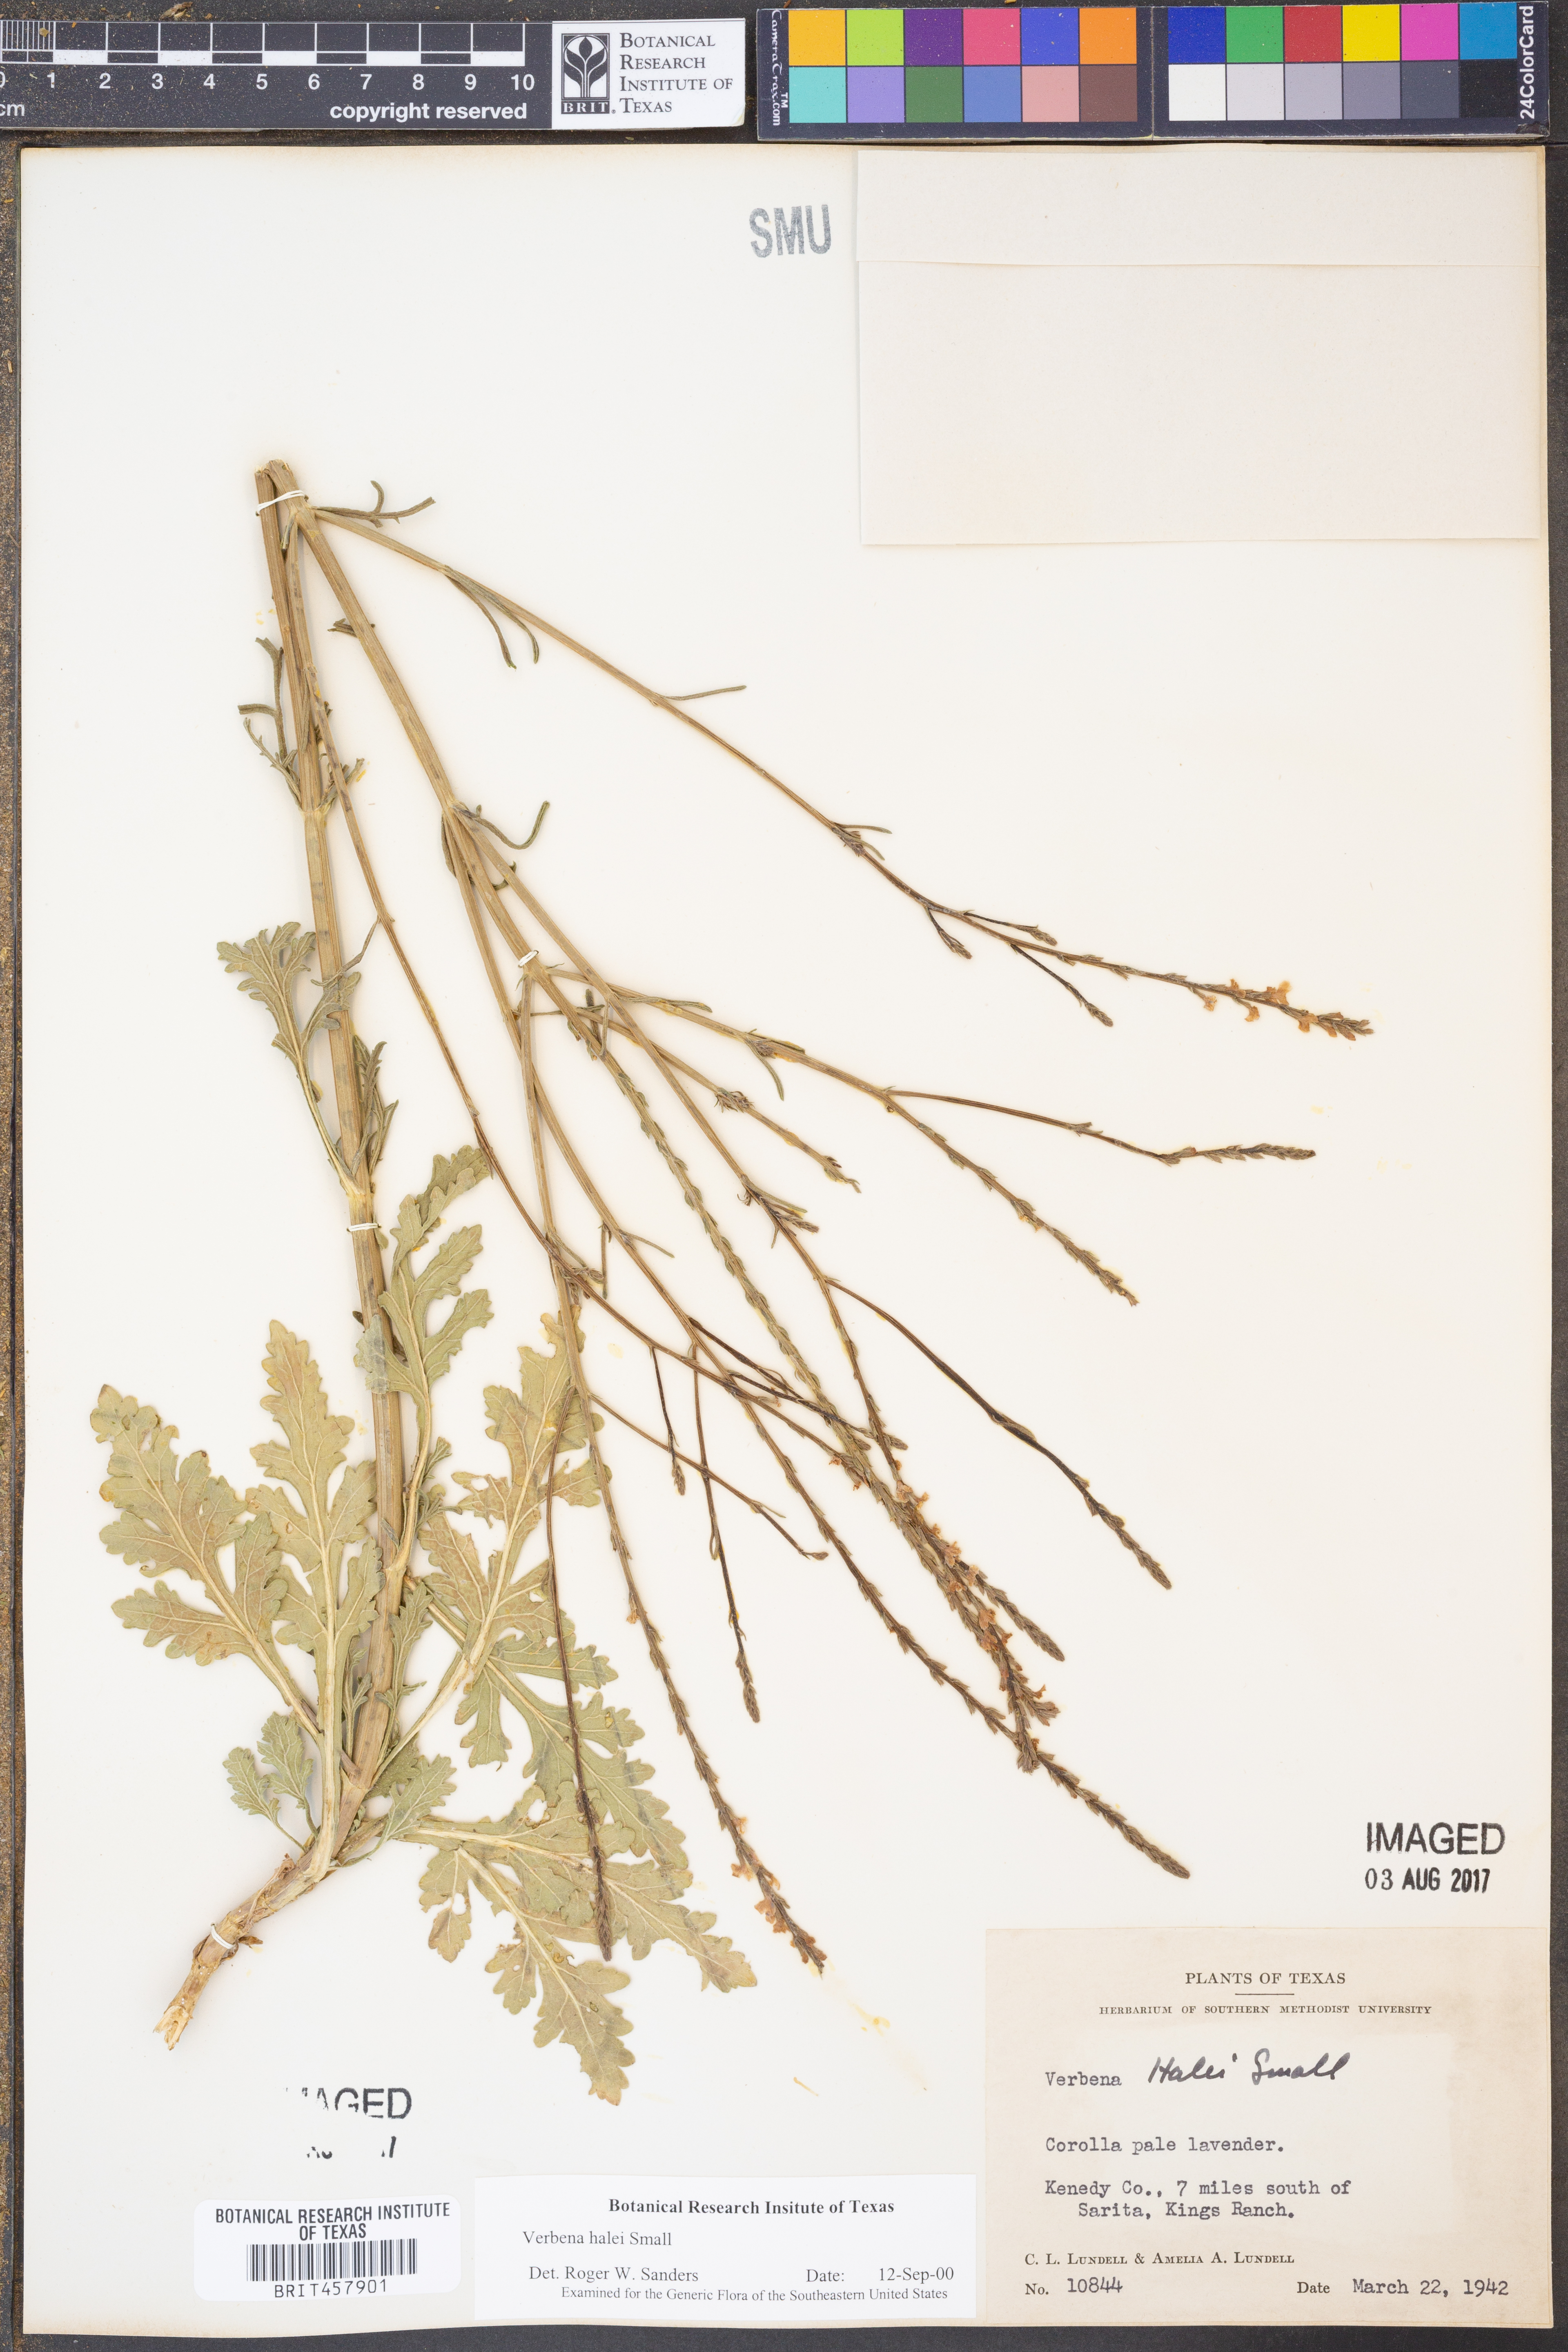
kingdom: Plantae
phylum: Tracheophyta
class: Magnoliopsida
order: Lamiales
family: Verbenaceae
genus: Verbena
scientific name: Verbena halei
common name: Texas vervain
